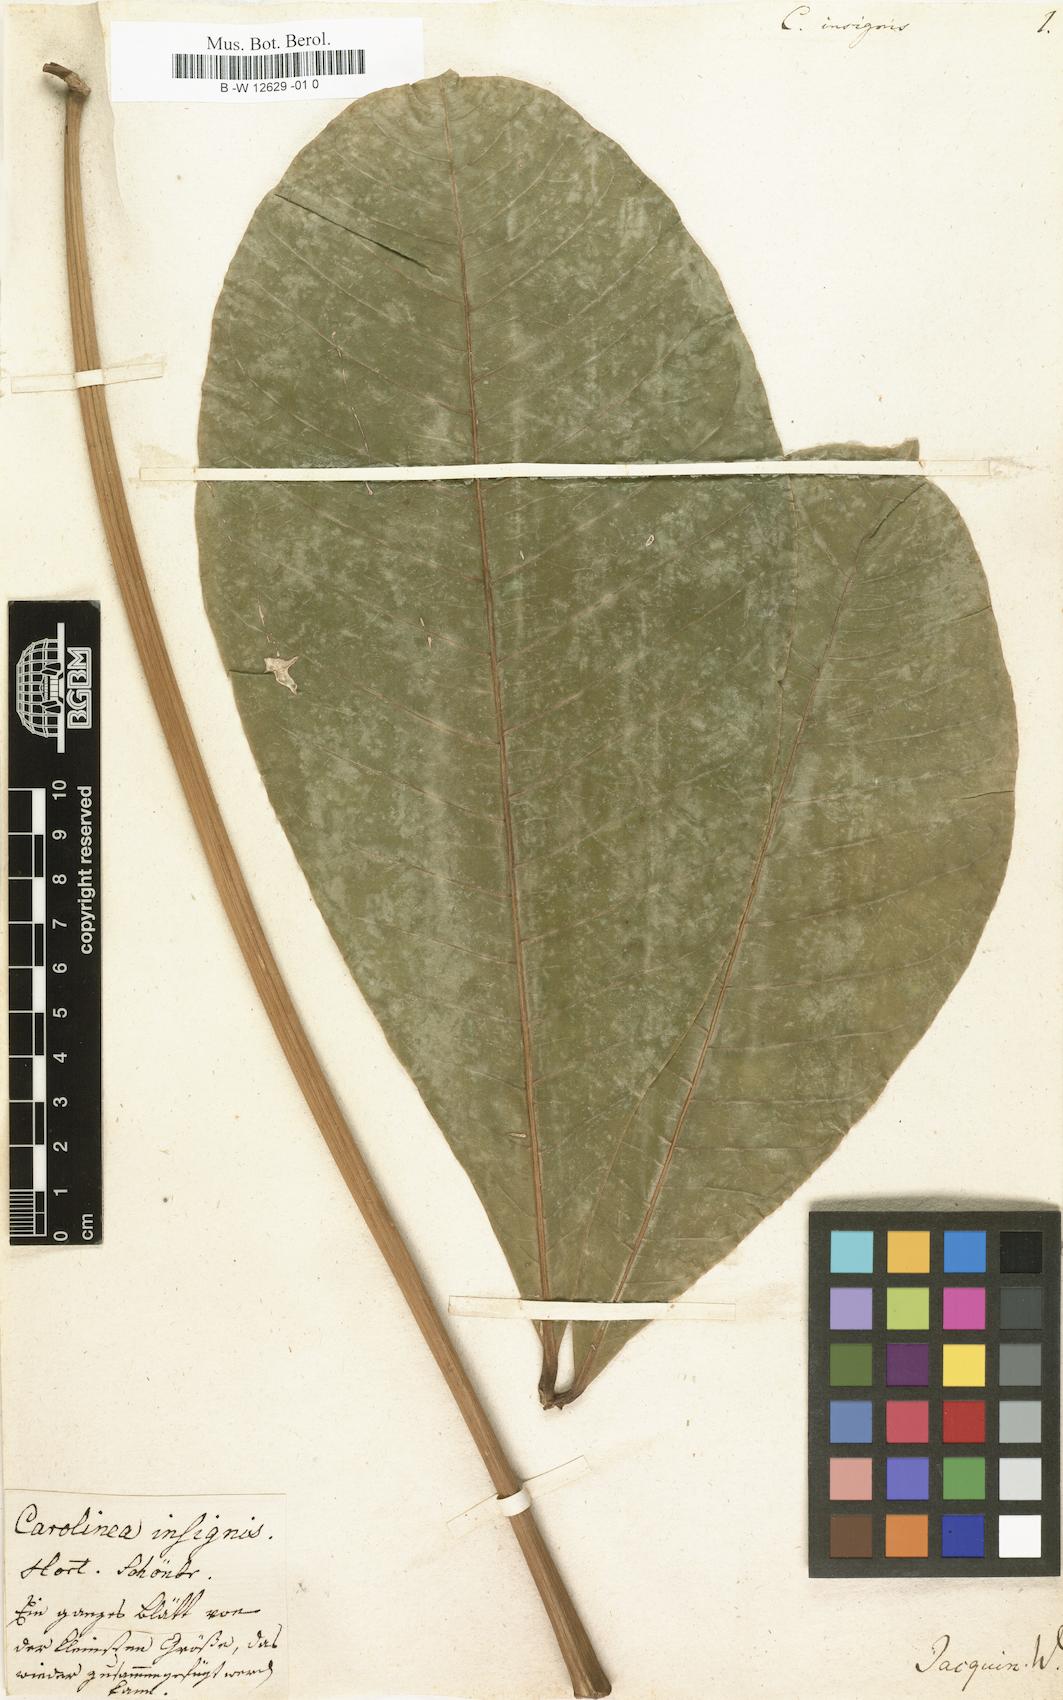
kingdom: Plantae
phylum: Tracheophyta
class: Magnoliopsida
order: Malvales
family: Malvaceae
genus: Pachira
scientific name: Pachira insignis
